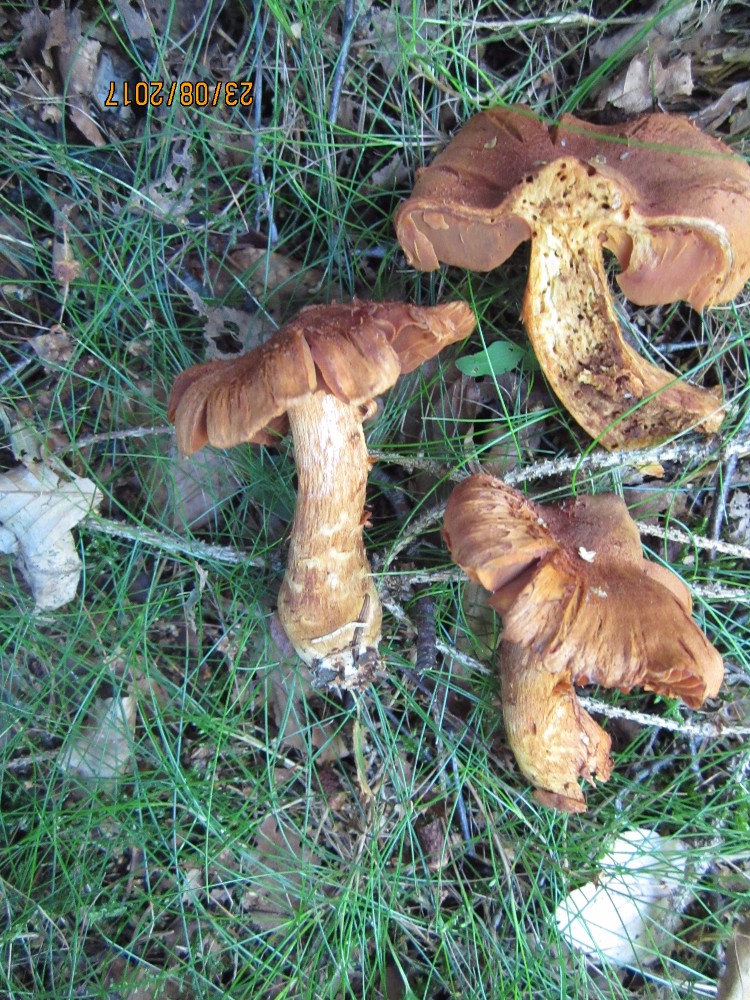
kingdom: Fungi
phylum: Basidiomycota
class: Agaricomycetes
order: Agaricales
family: Cortinariaceae
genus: Cortinarius
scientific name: Cortinarius rubellus
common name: puklet gift-slørhat
